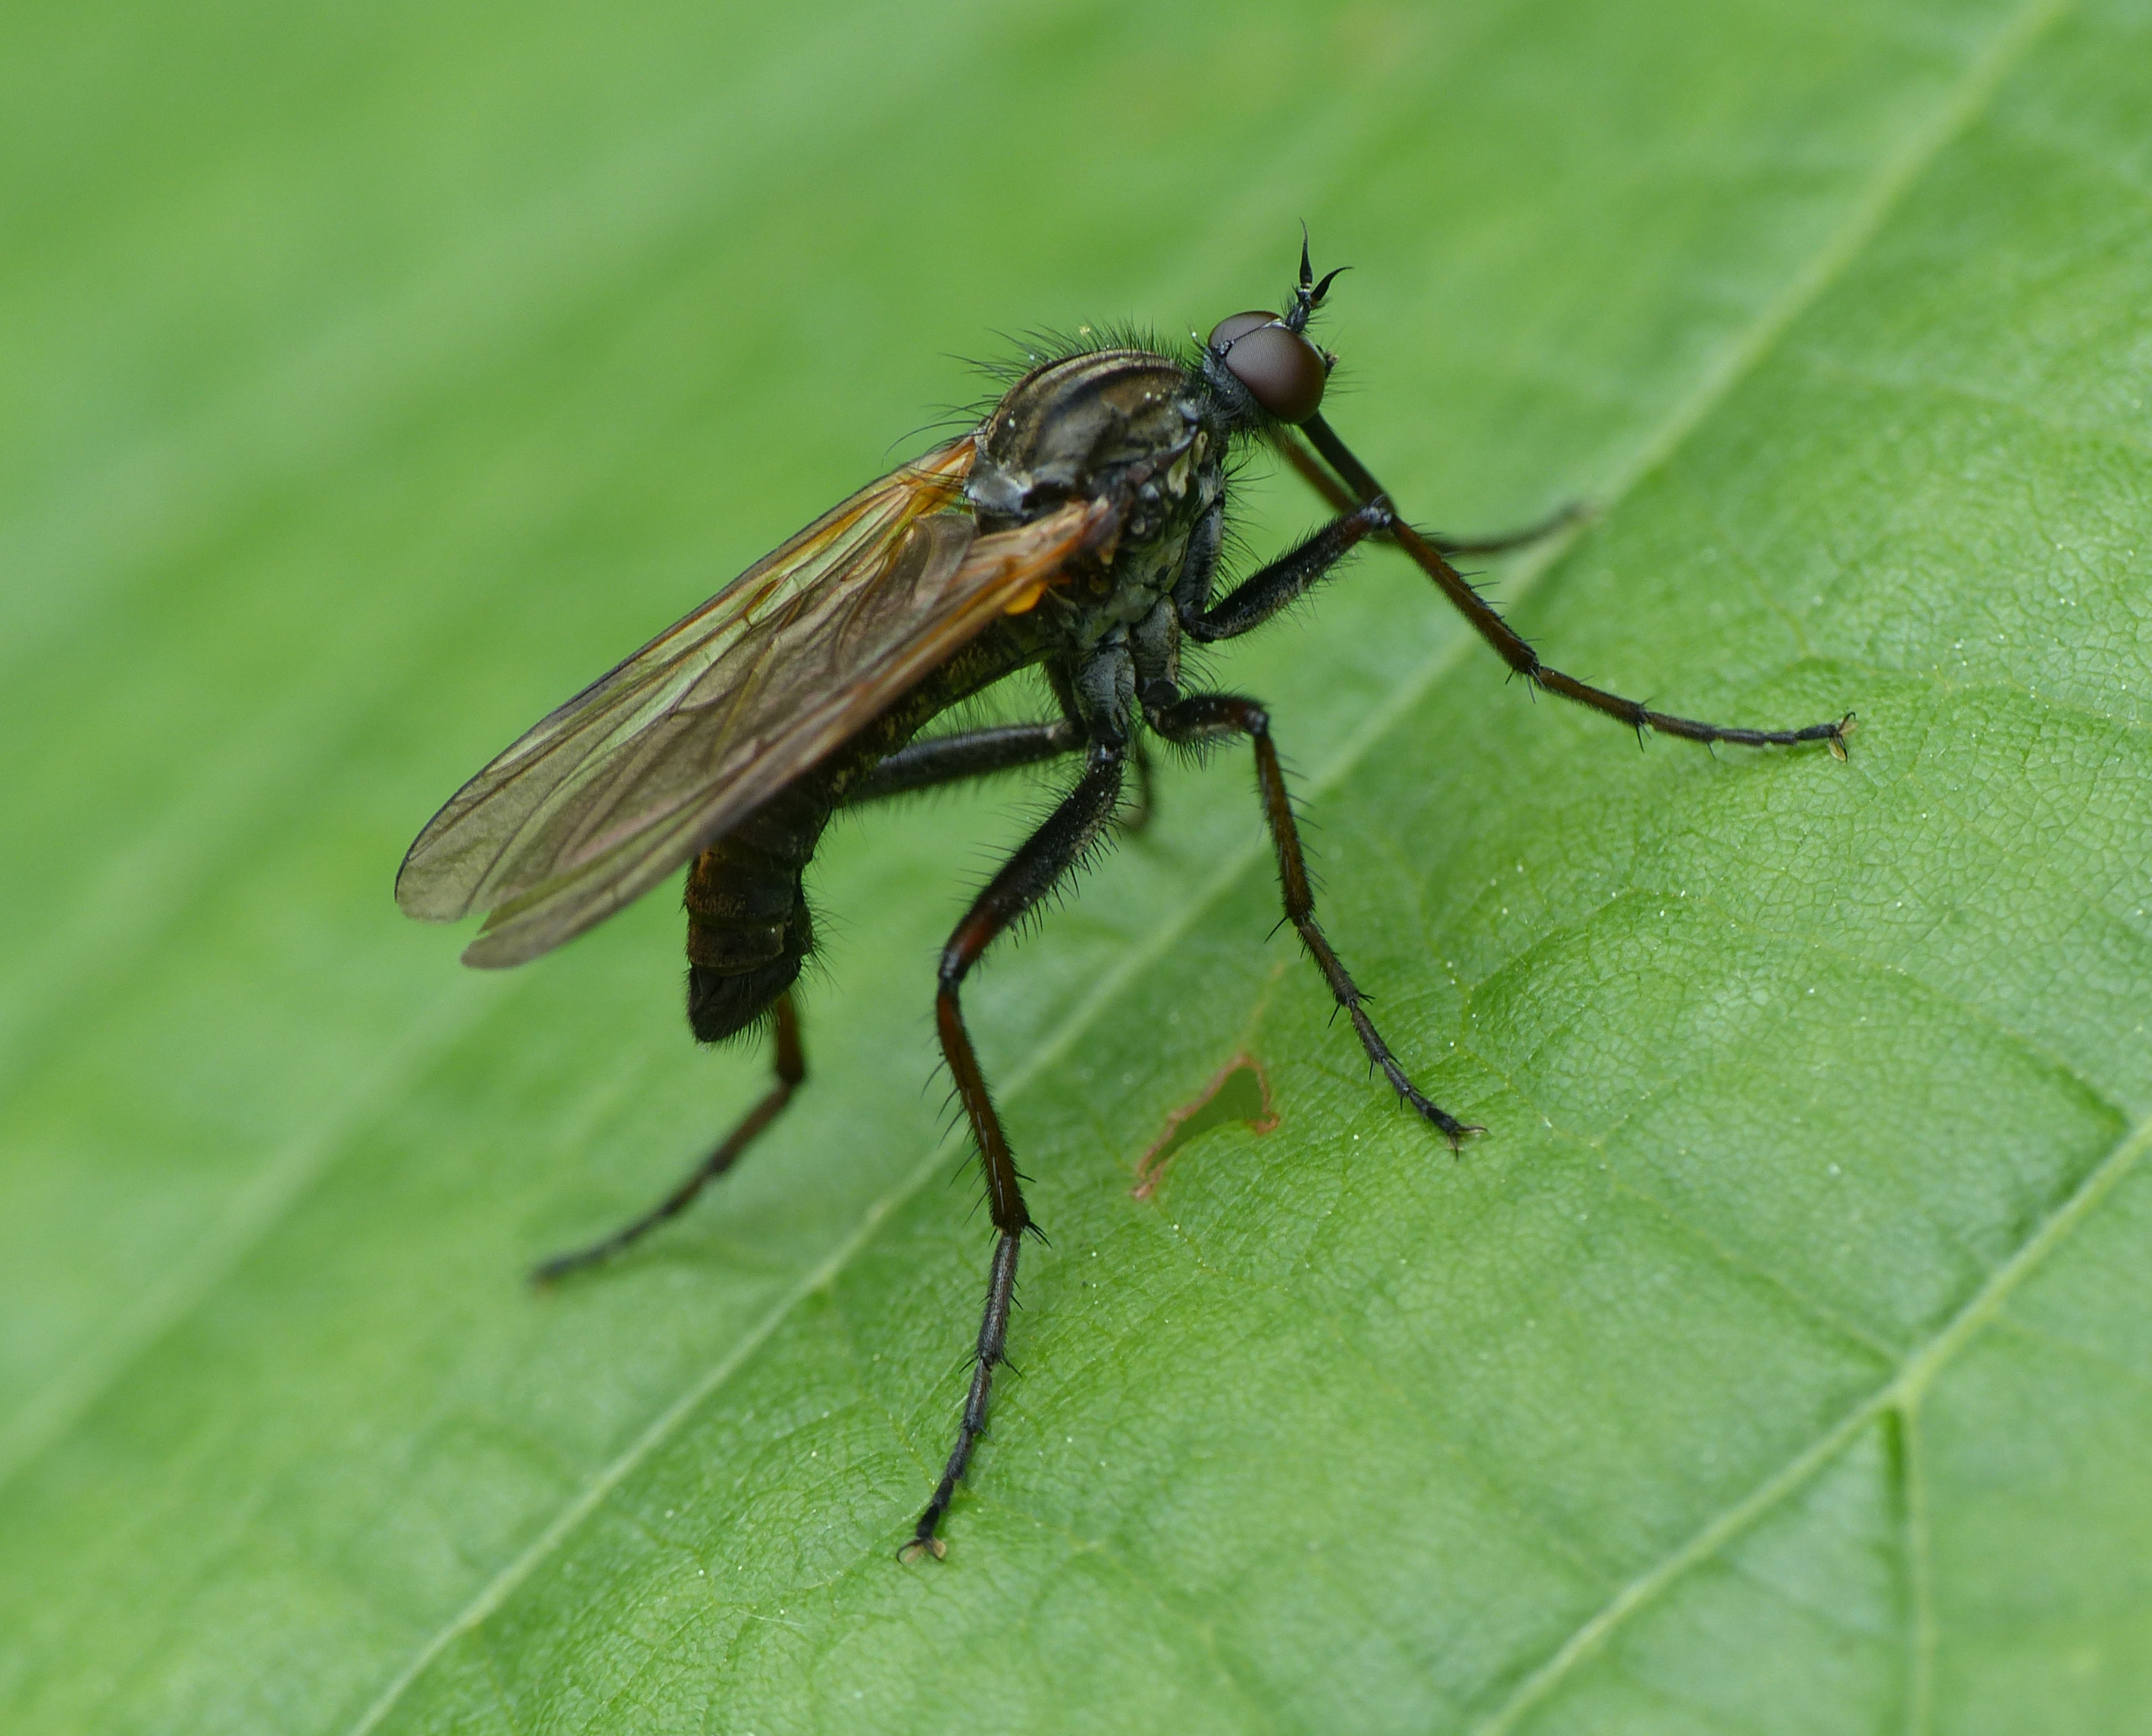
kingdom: Animalia
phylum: Arthropoda
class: Insecta
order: Diptera
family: Empididae
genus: Empis
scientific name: Empis tessellata
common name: Stor danseflue
